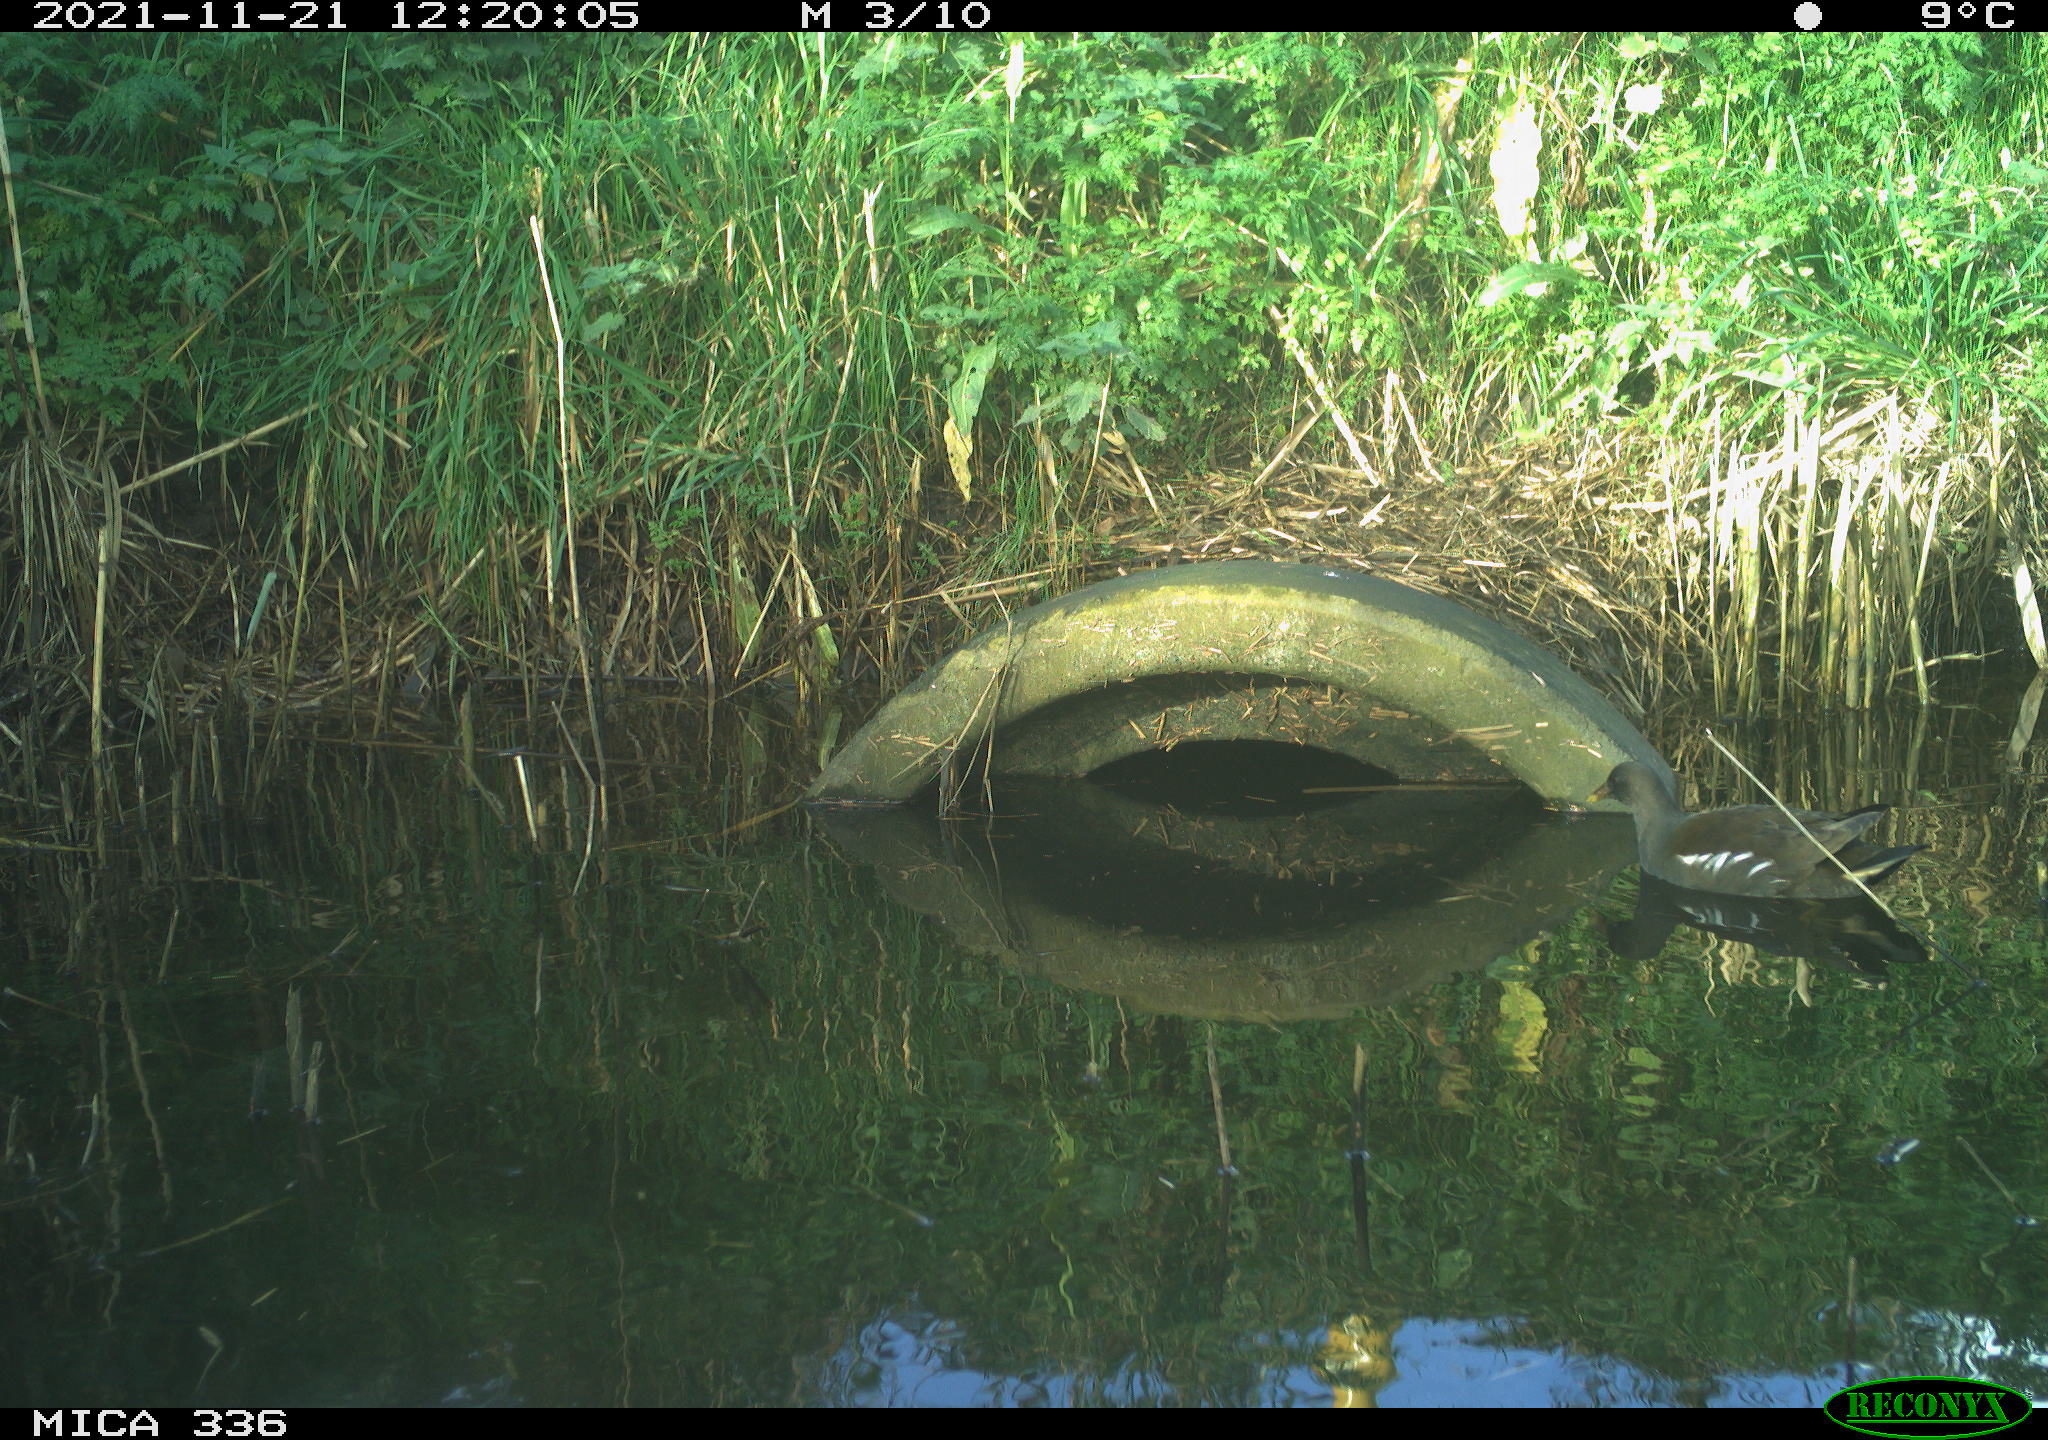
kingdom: Animalia
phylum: Chordata
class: Aves
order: Gruiformes
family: Rallidae
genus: Gallinula
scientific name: Gallinula chloropus
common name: Common moorhen
